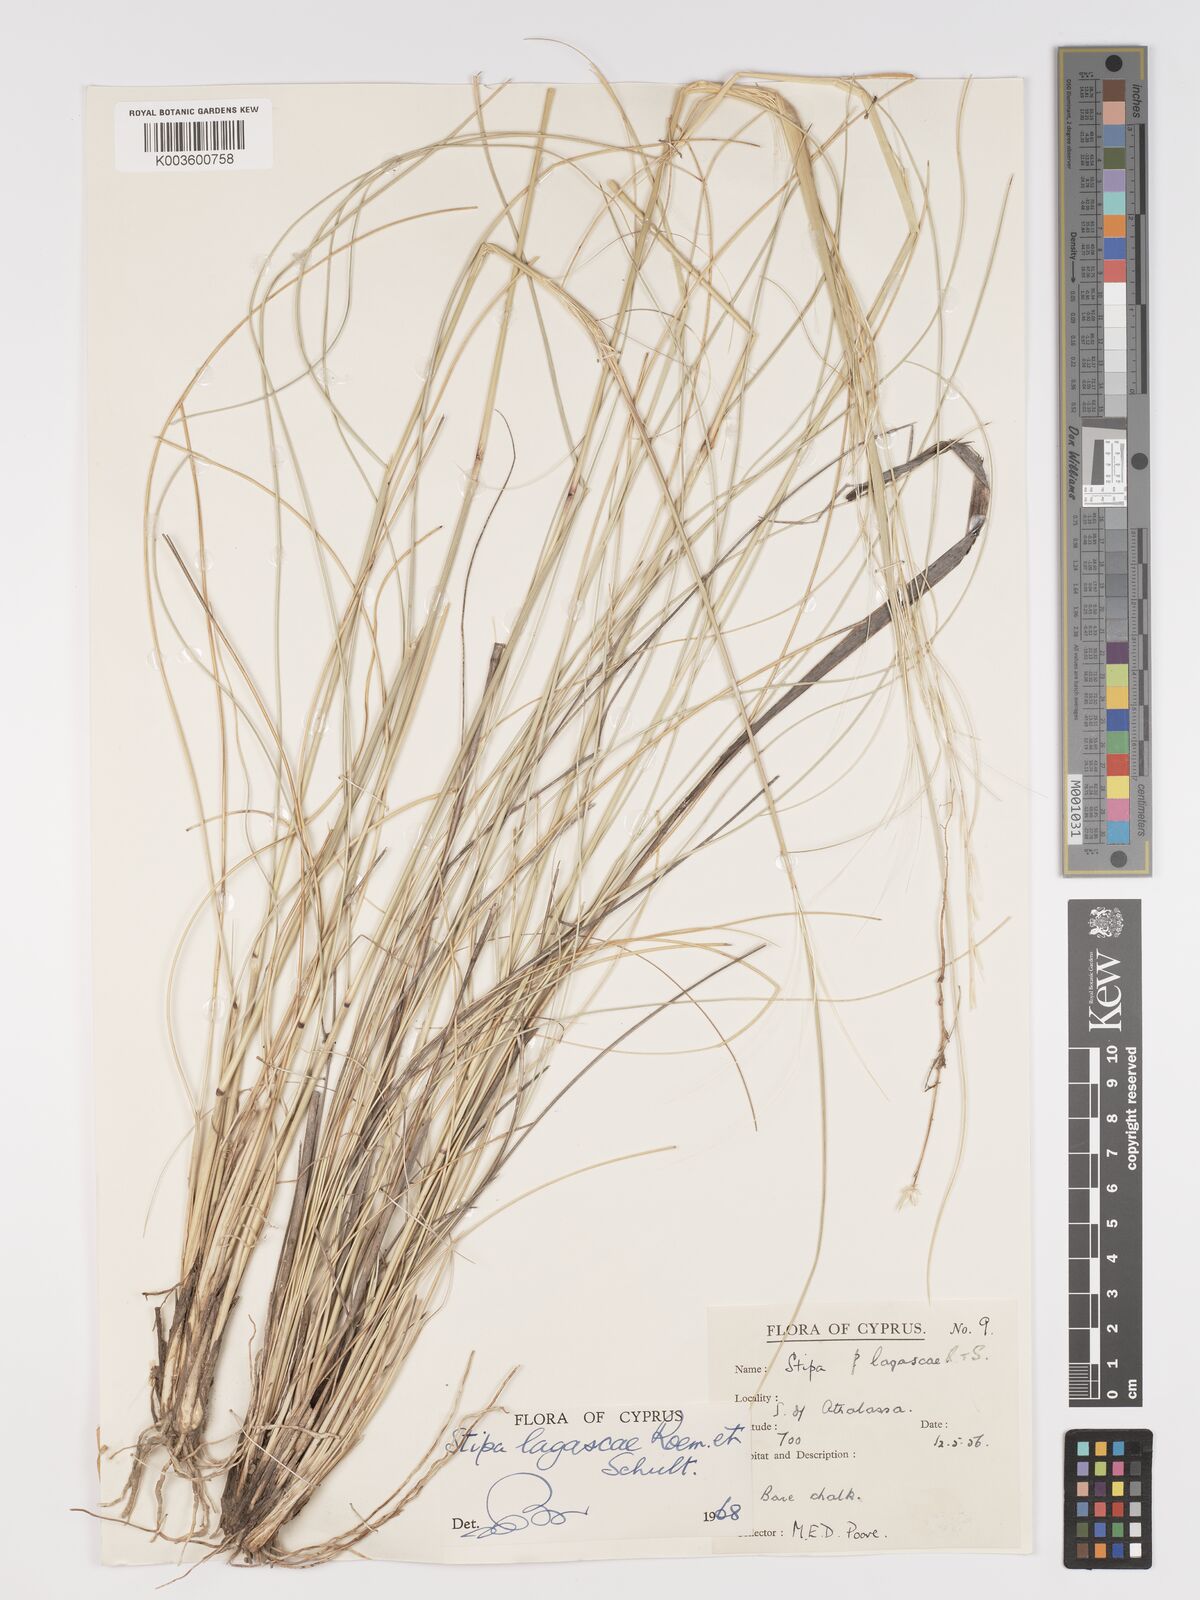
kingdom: Plantae
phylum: Tracheophyta
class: Liliopsida
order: Poales
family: Poaceae
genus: Stipa
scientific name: Stipa lagascae
